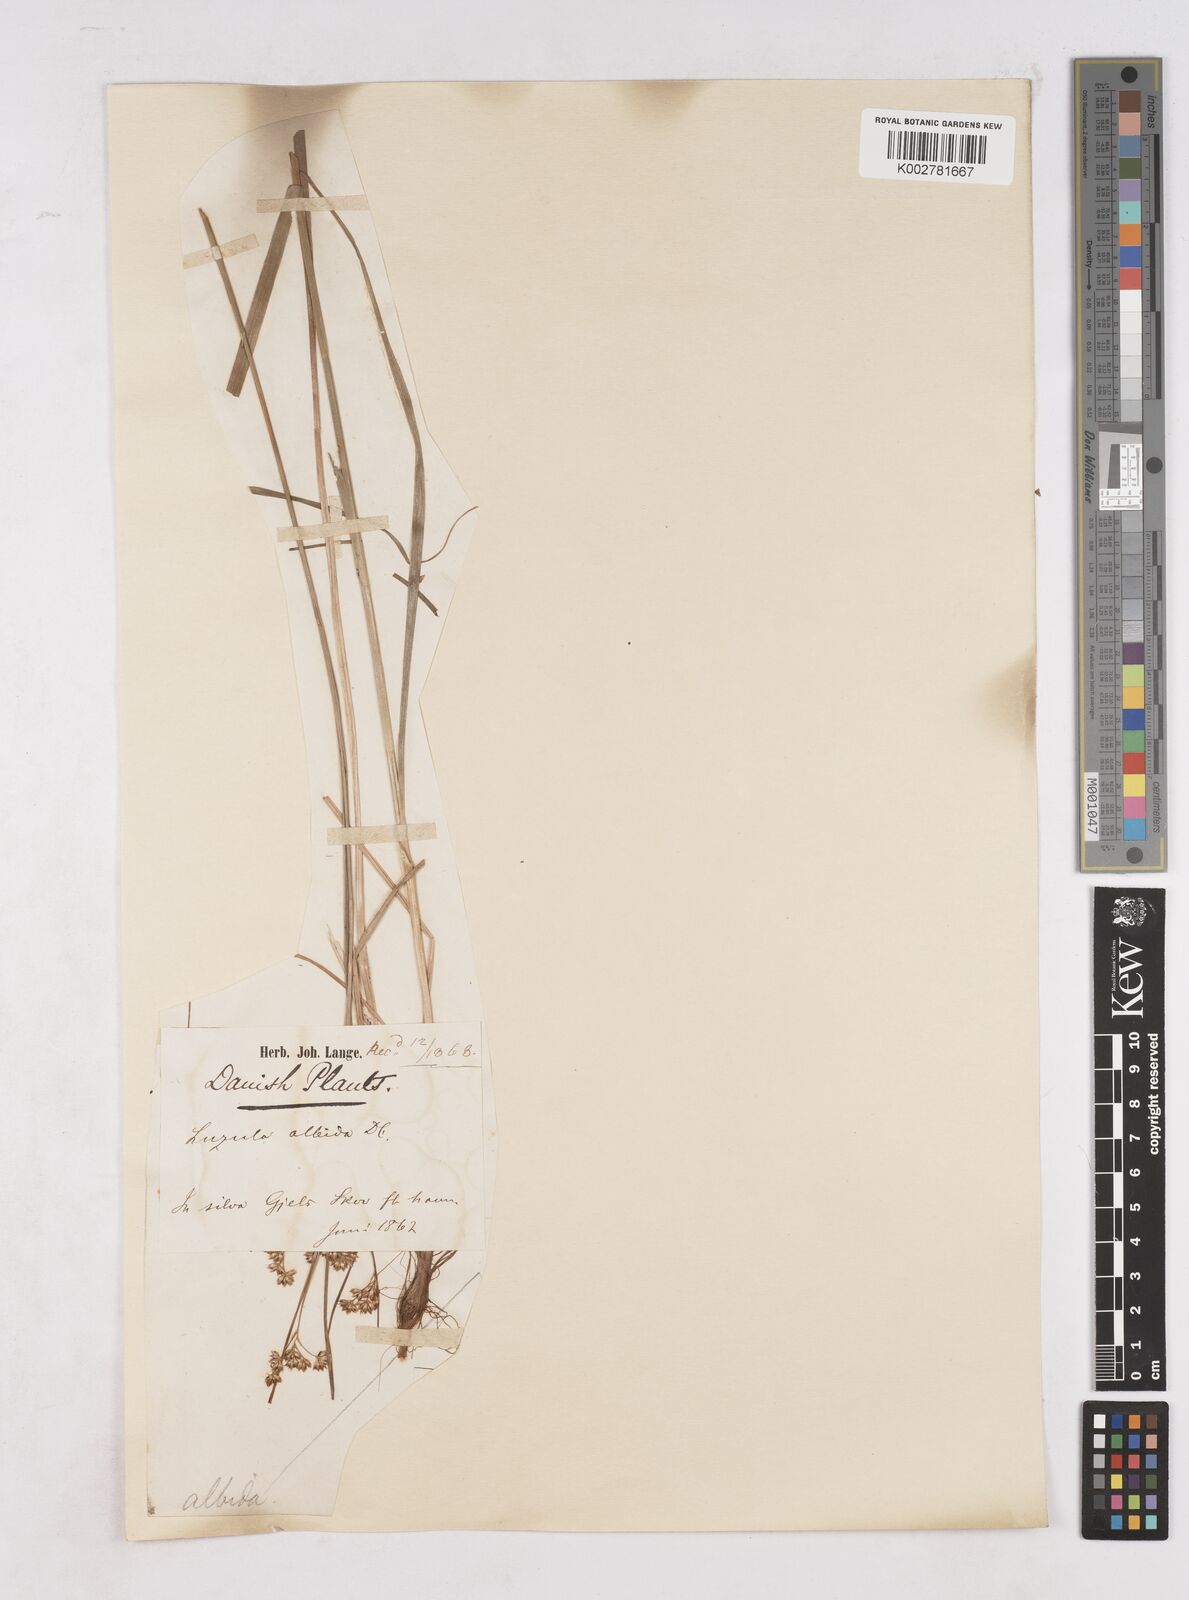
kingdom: Plantae
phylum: Tracheophyta
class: Liliopsida
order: Poales
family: Juncaceae
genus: Luzula
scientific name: Luzula luzuloides
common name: White wood-rush
